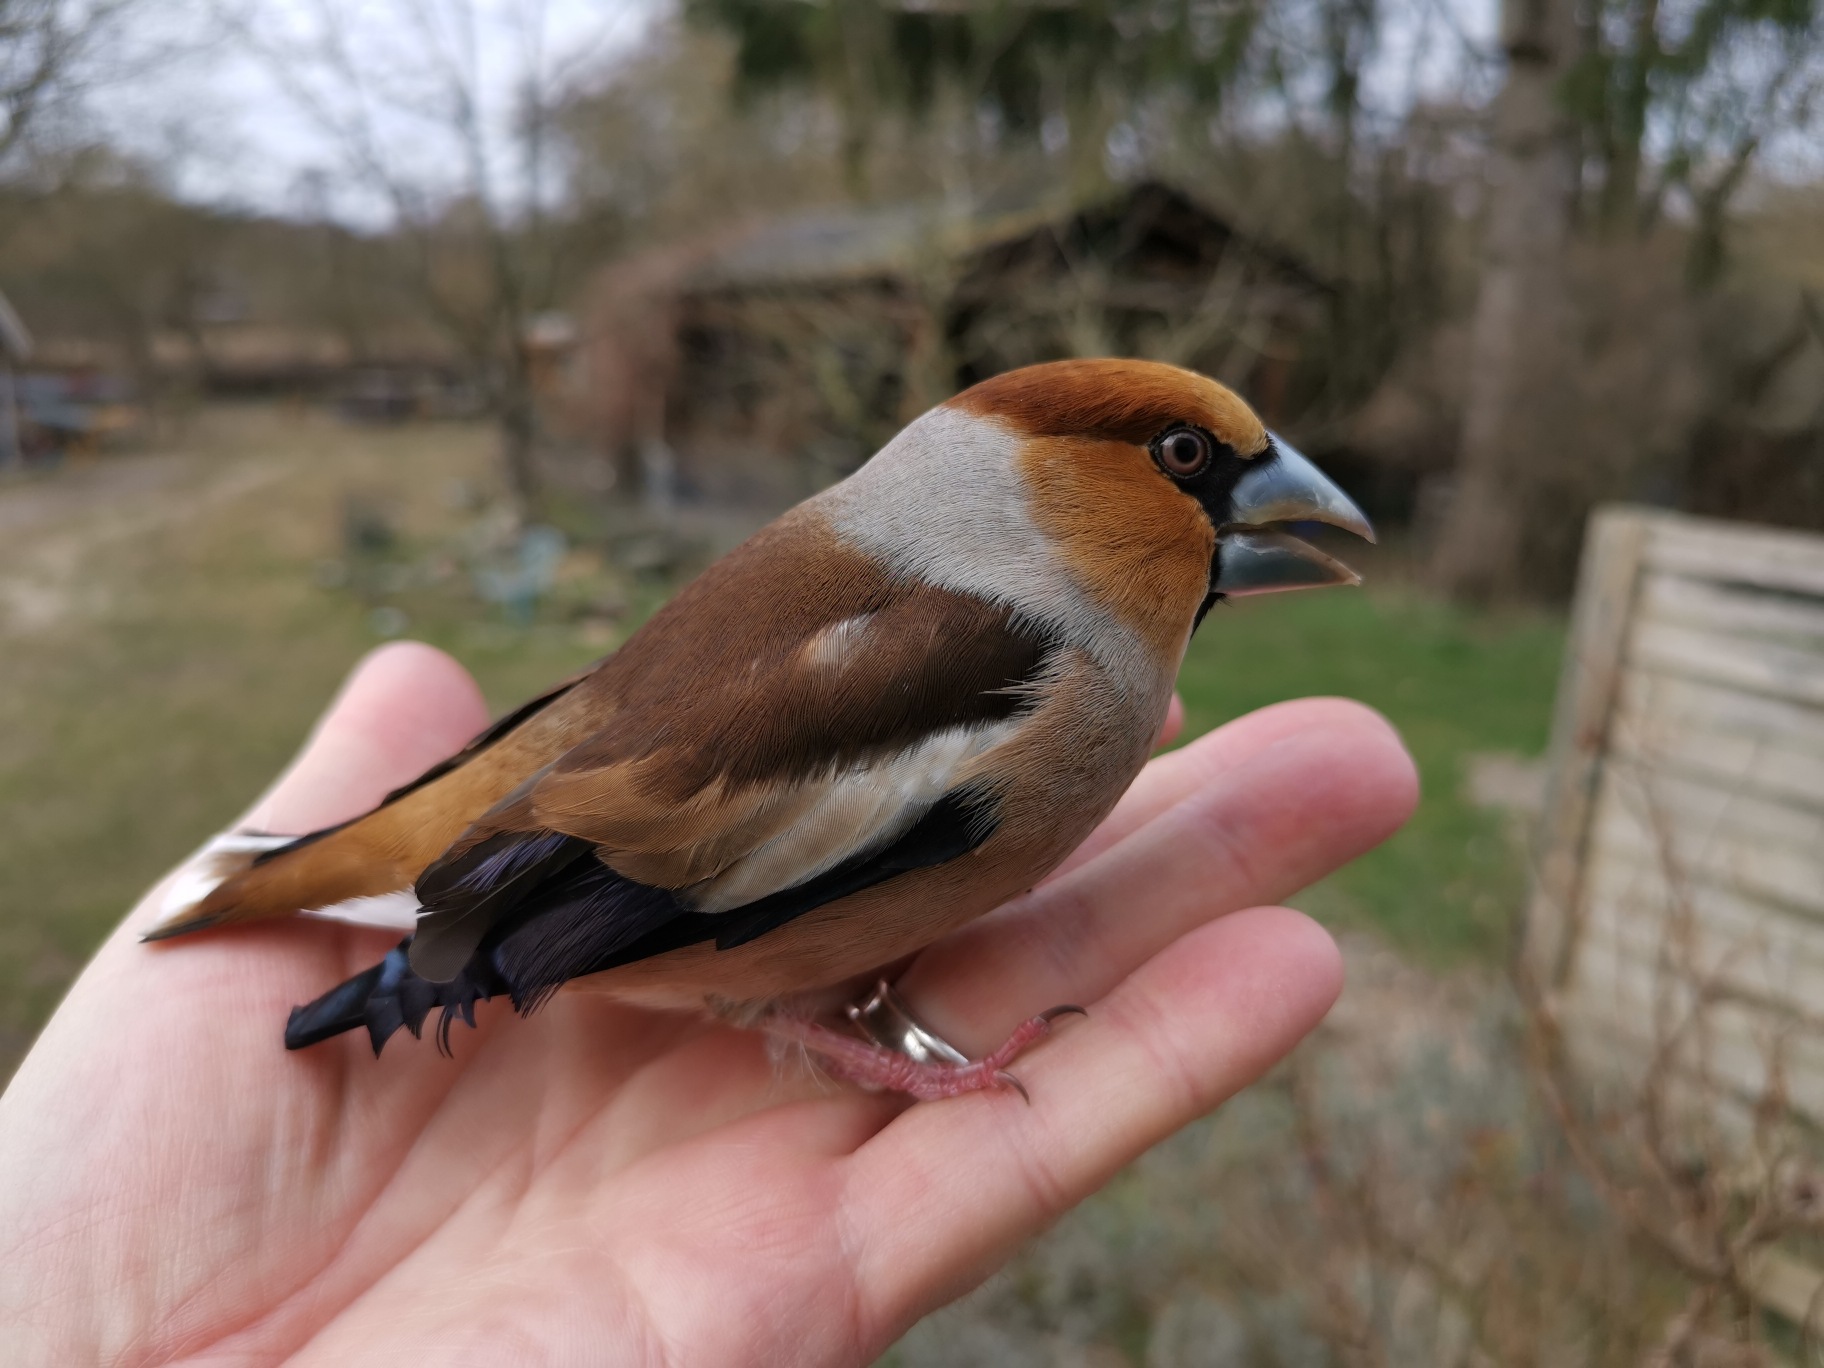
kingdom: Animalia
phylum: Chordata
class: Aves
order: Passeriformes
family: Fringillidae
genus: Coccothraustes
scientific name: Coccothraustes coccothraustes
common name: Kernebider
